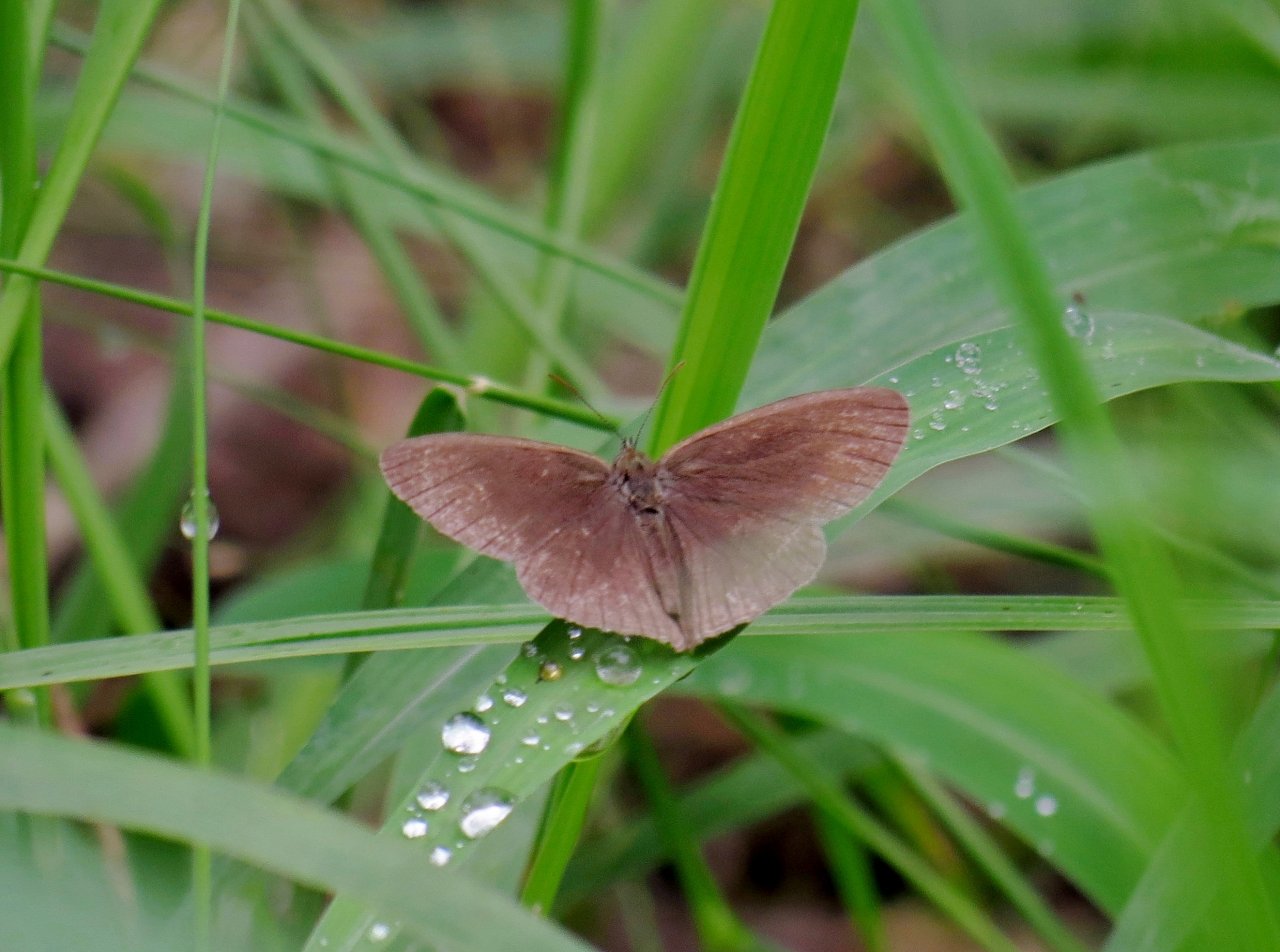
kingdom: Animalia
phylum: Arthropoda
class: Insecta
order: Lepidoptera
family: Nymphalidae
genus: Hermeuptychia
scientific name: Hermeuptychia hermybius
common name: South Texas Satyr
